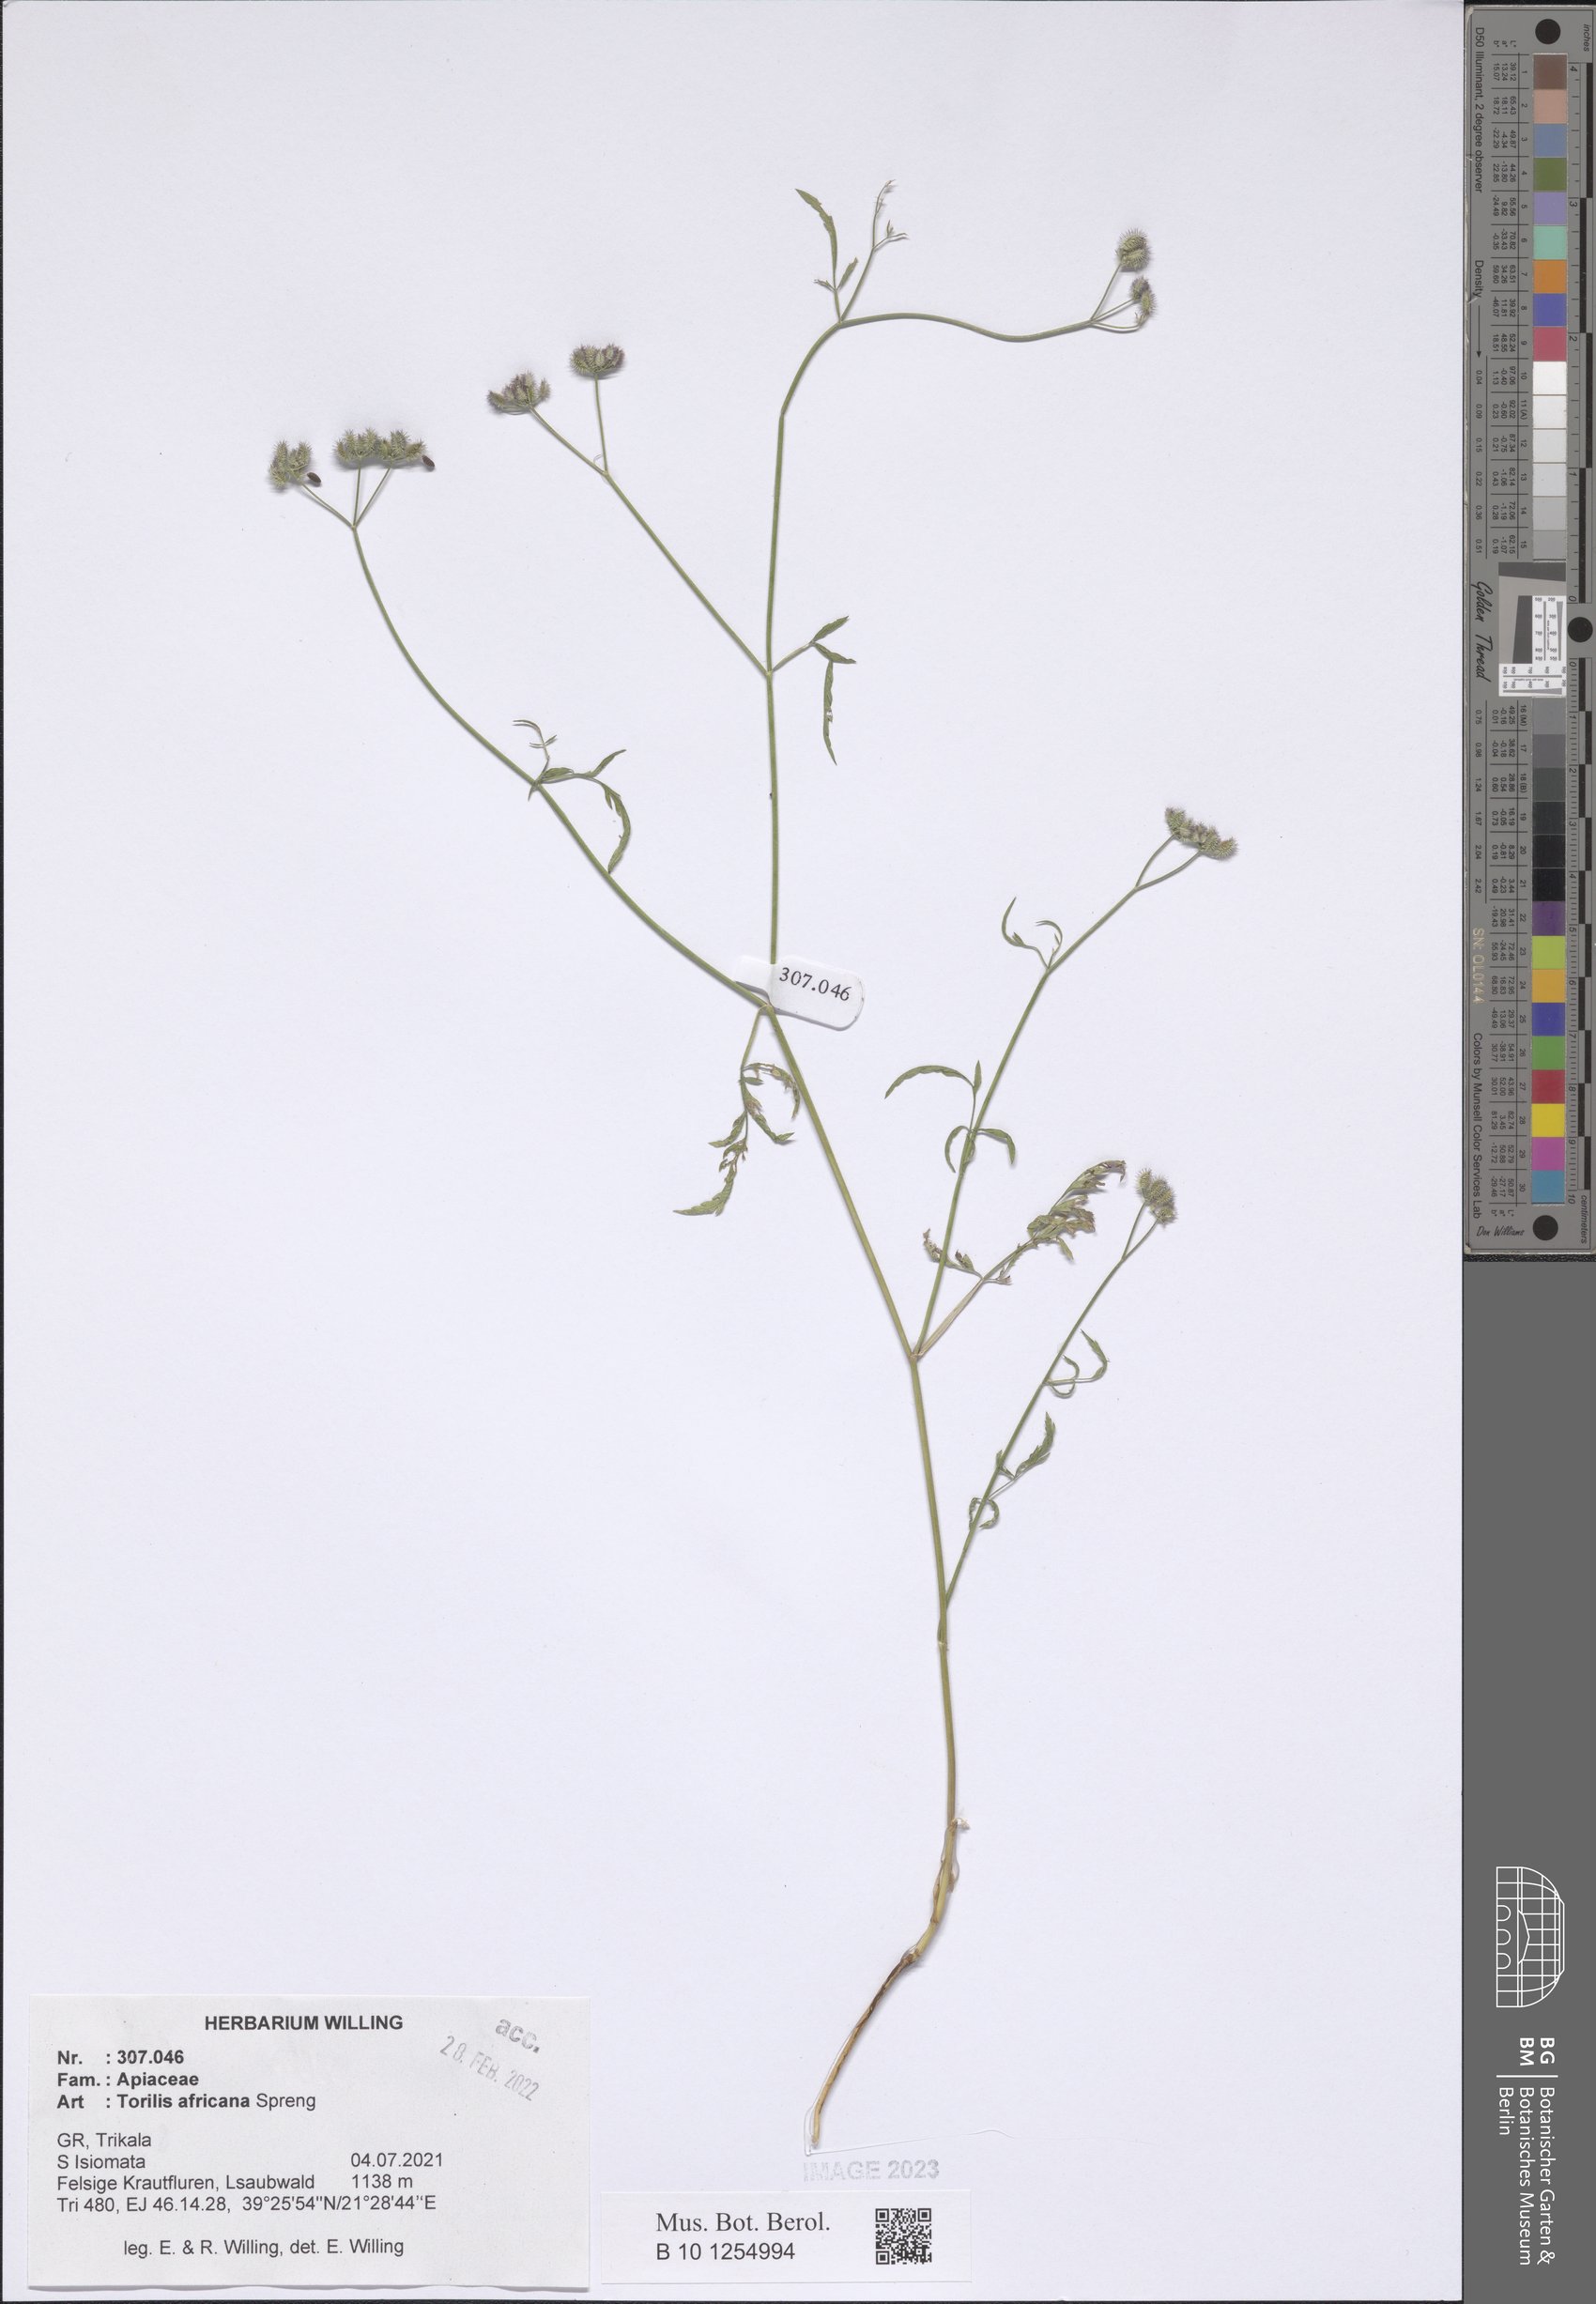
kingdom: Plantae
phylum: Tracheophyta
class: Magnoliopsida
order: Apiales
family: Apiaceae
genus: Torilis
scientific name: Torilis africana
